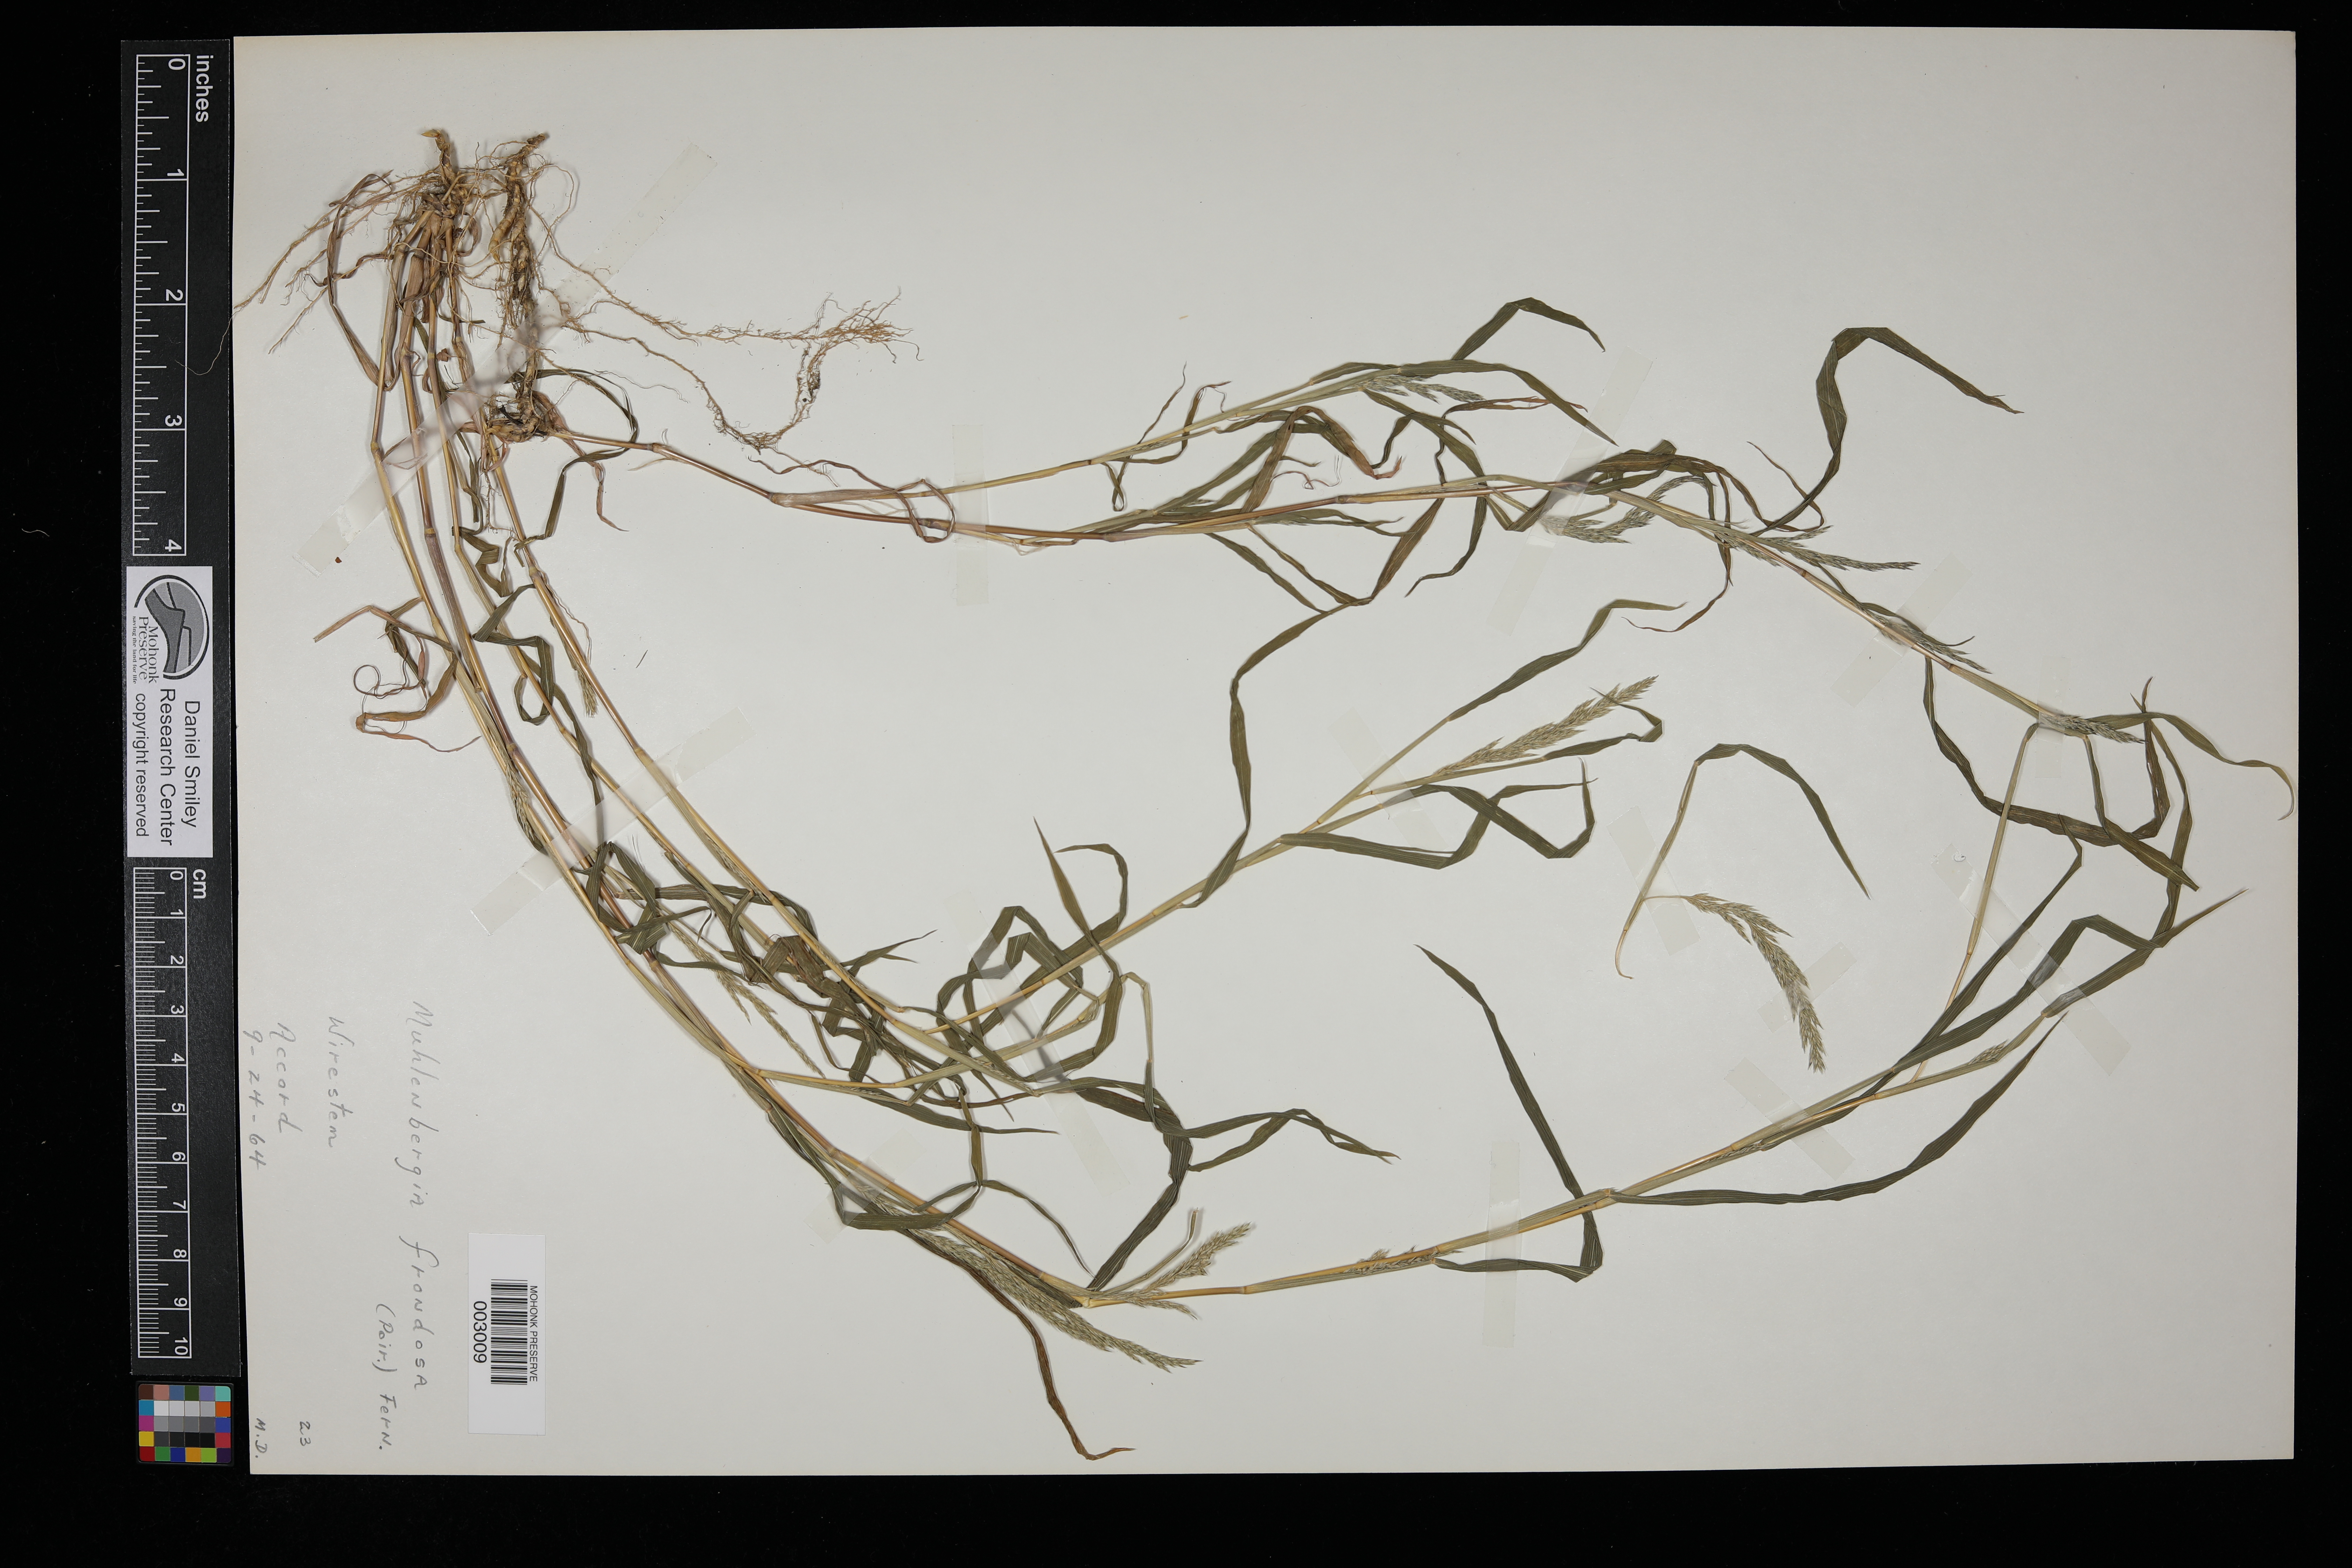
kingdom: Plantae
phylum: Tracheophyta
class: Liliopsida
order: Poales
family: Poaceae
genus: Muhlenbergia
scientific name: Muhlenbergia frondosa
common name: Common satingrass
